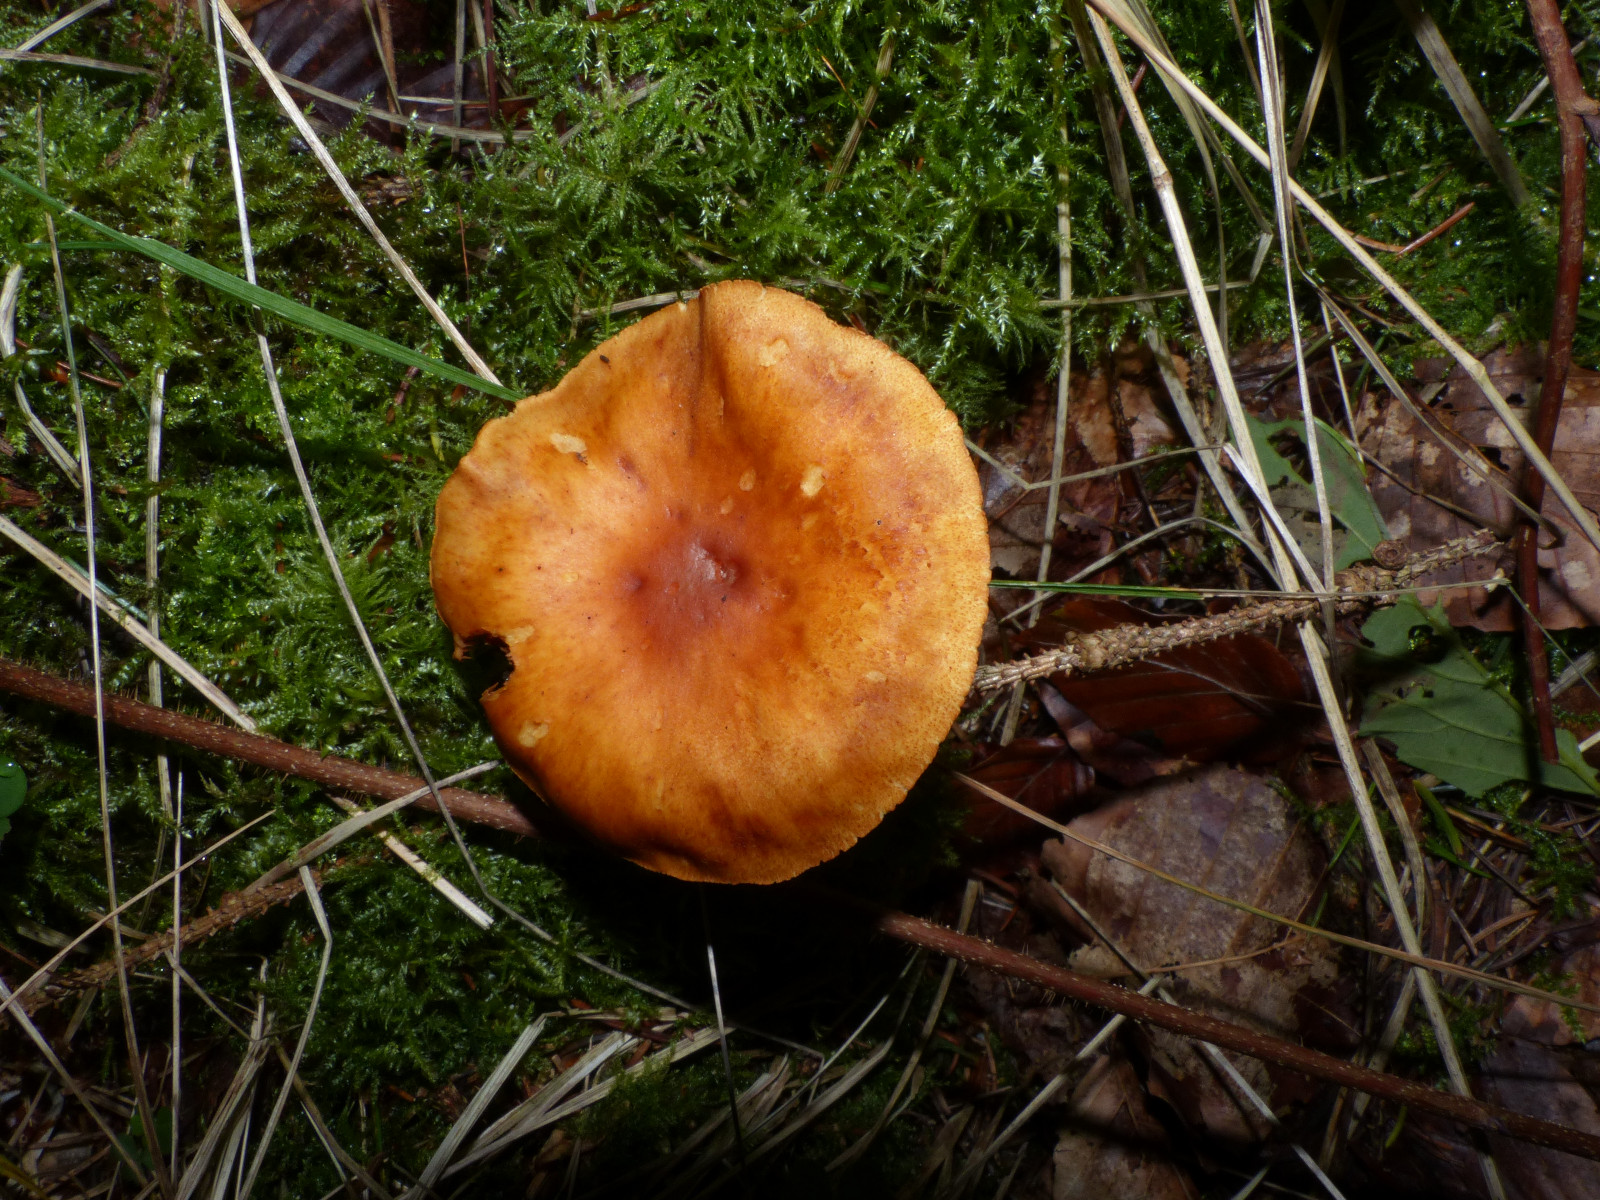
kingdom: Fungi
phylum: Basidiomycota
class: Agaricomycetes
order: Agaricales
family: Hymenogastraceae
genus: Gymnopilus
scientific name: Gymnopilus penetrans
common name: plettet flammehat
